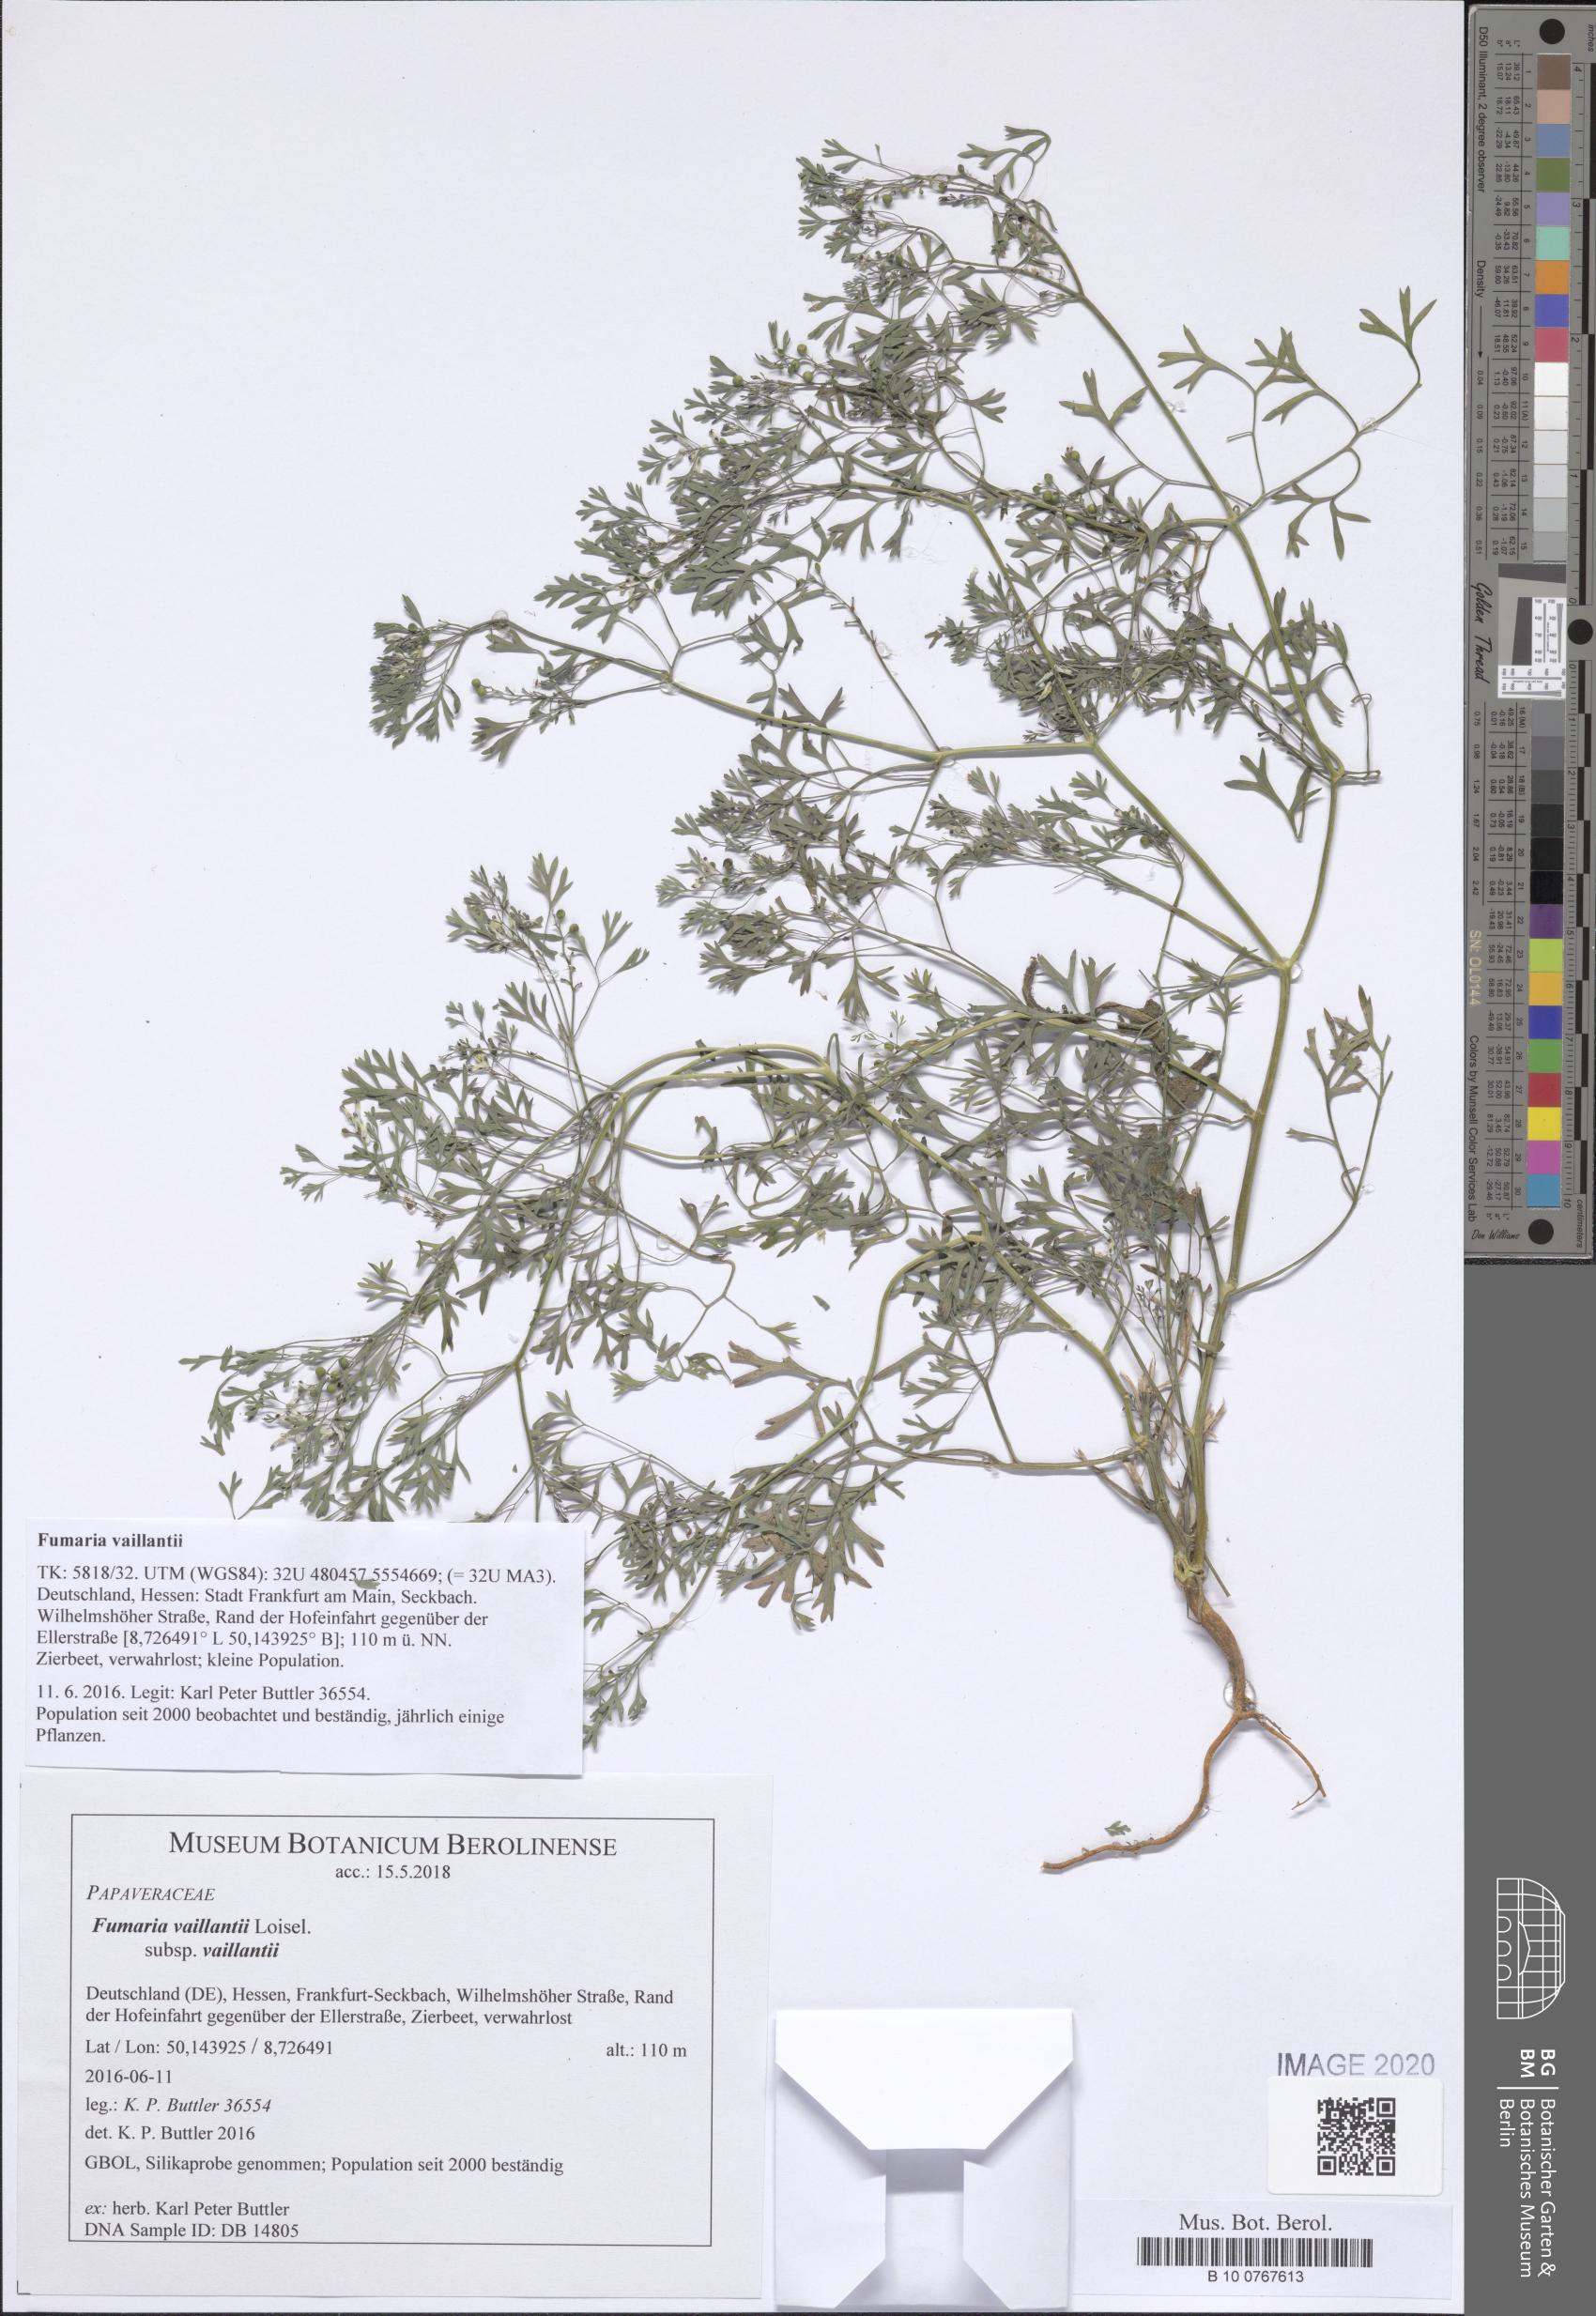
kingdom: Plantae
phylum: Tracheophyta
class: Magnoliopsida
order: Ranunculales
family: Papaveraceae
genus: Fumaria
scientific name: Fumaria vaillantii
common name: Few-flowered fumitory
